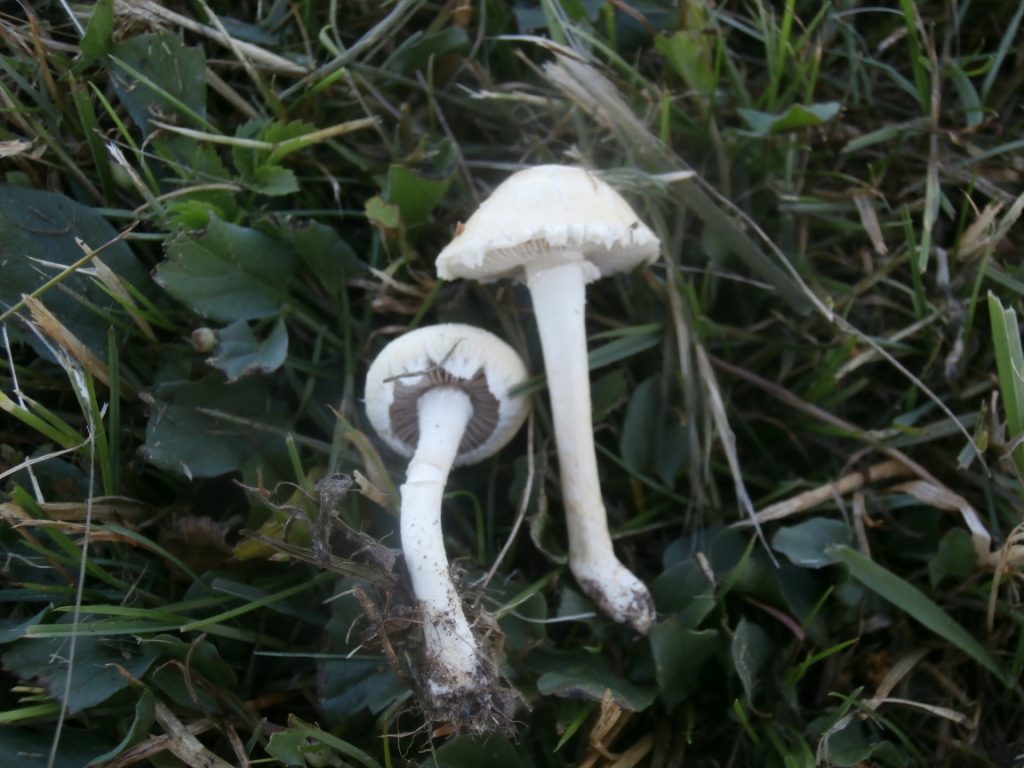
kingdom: Fungi
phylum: Basidiomycota
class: Agaricomycetes
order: Agaricales
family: Strophariaceae
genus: Agrocybe
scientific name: Agrocybe dura
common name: fastkødet agerhat
